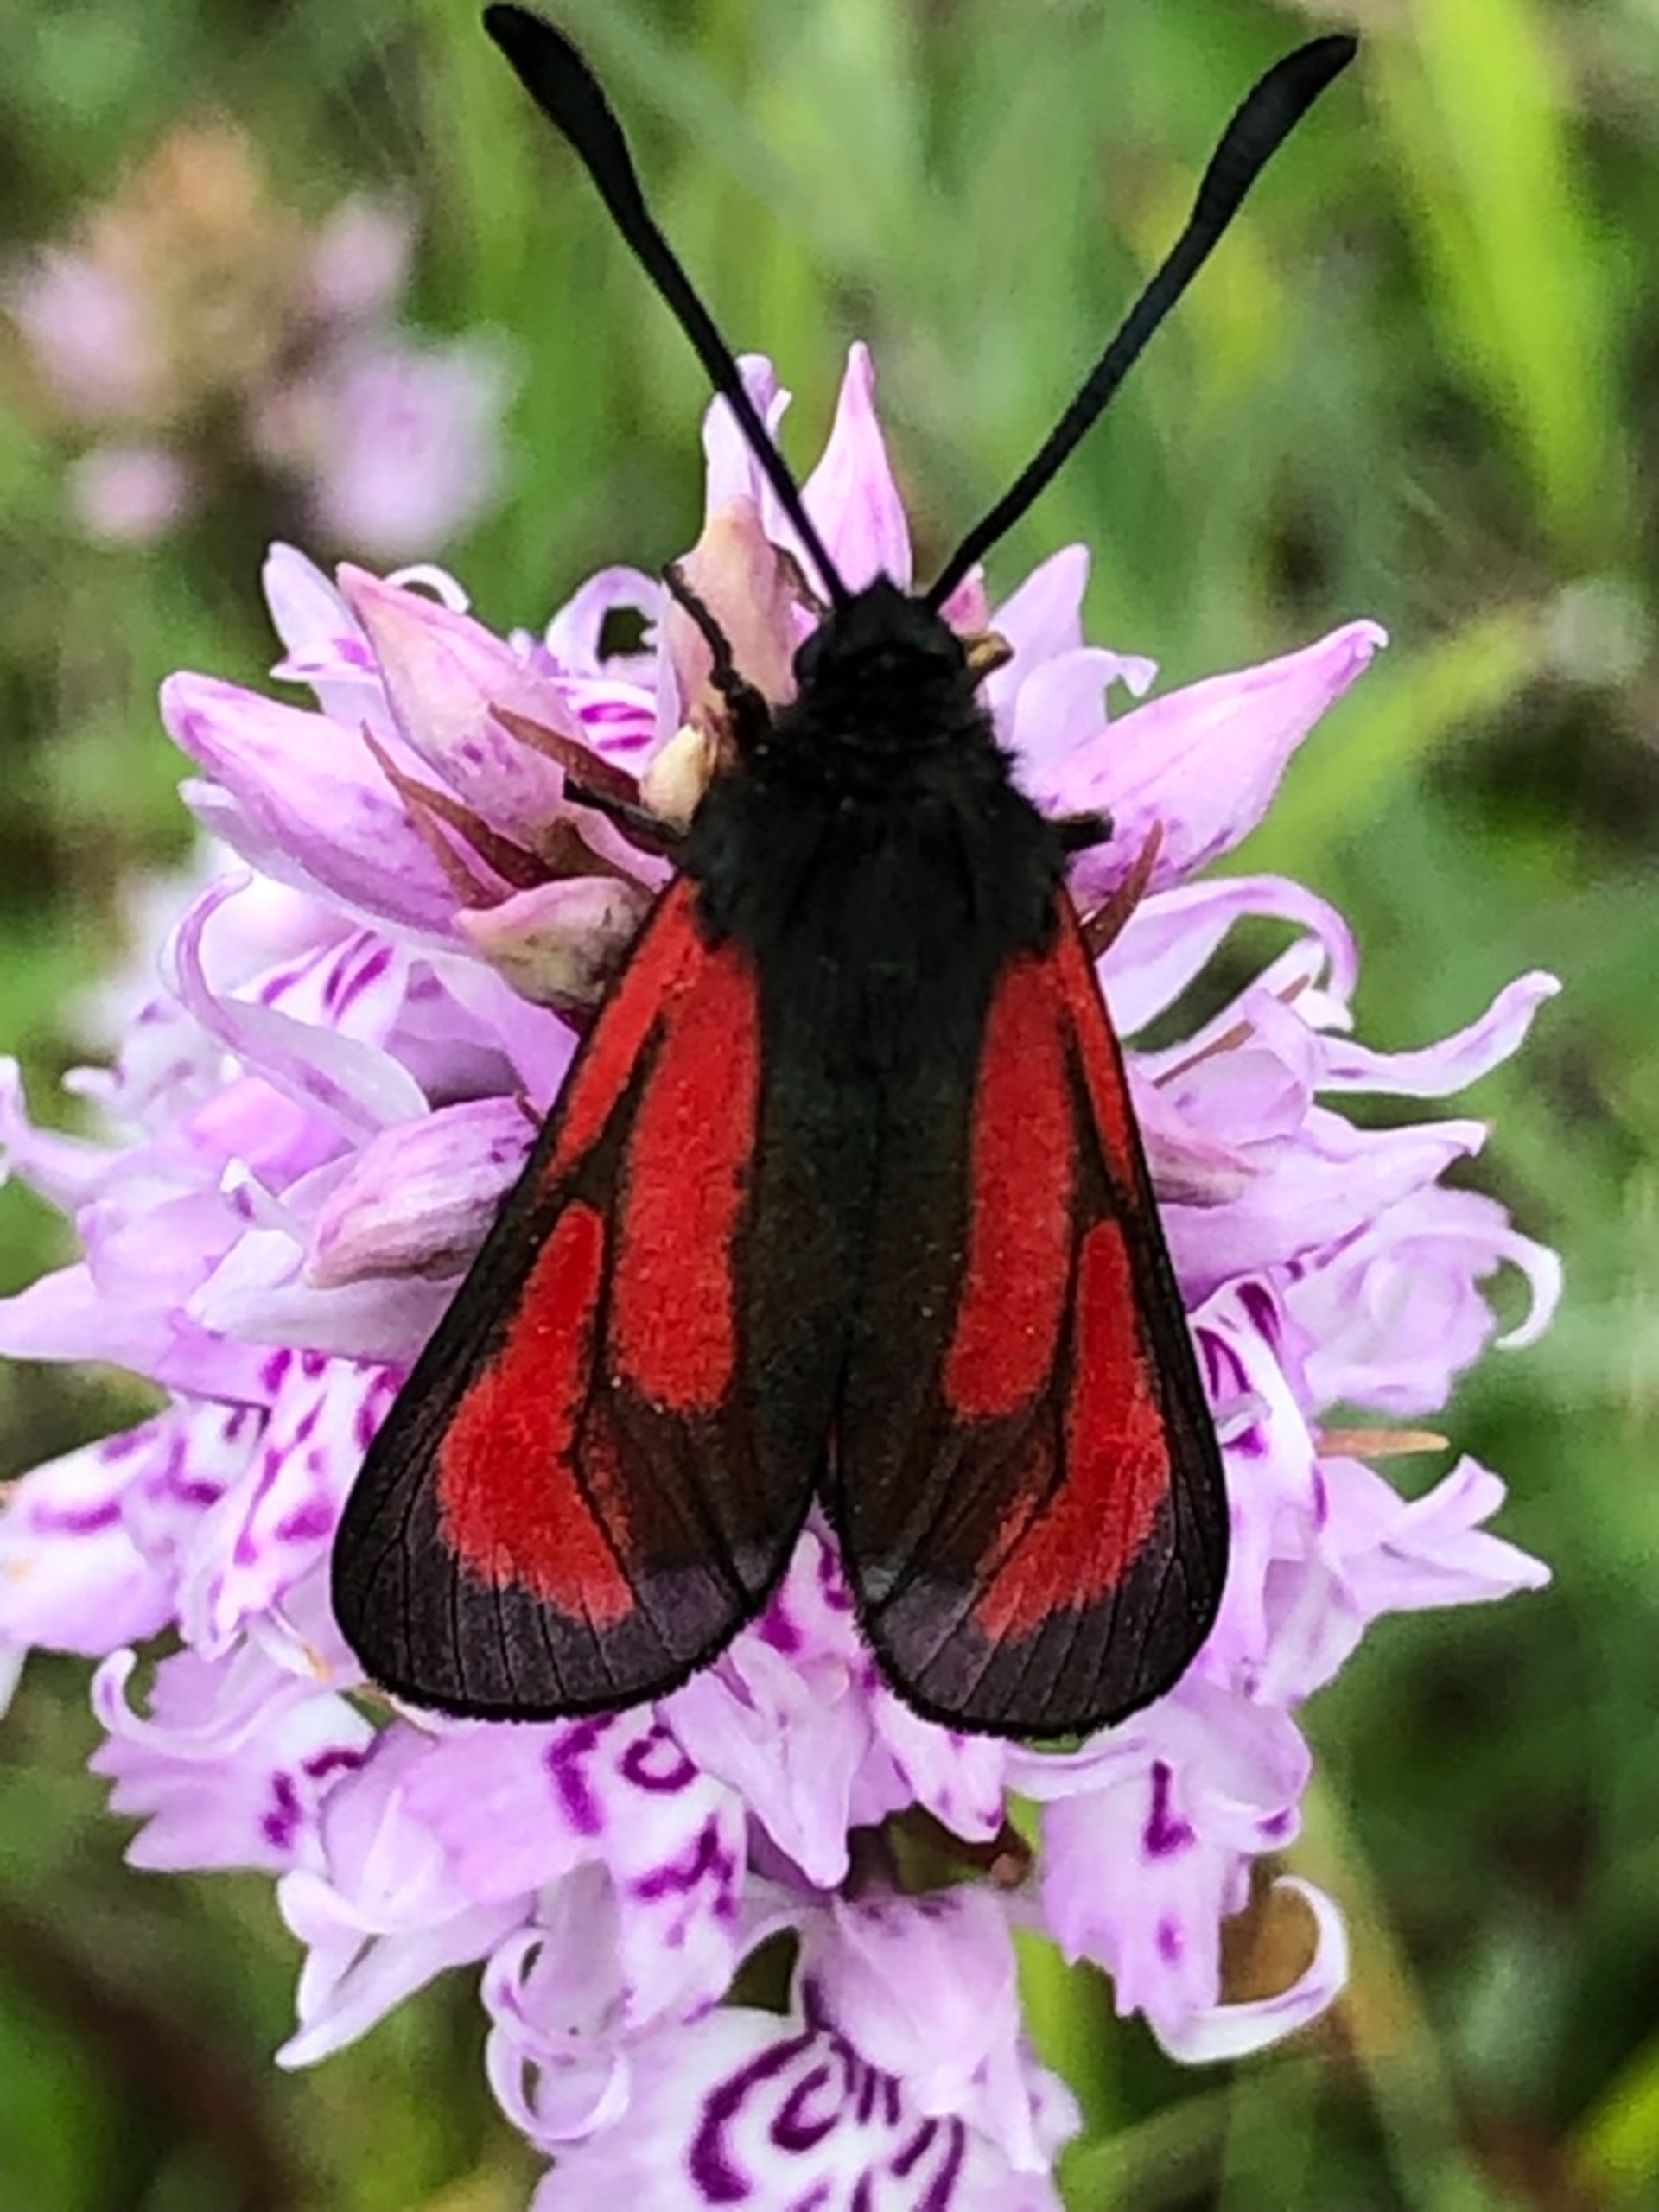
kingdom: Animalia
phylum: Arthropoda
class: Insecta
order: Lepidoptera
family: Zygaenidae
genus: Zygaena
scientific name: Zygaena purpuralis
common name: Timiankøllesværmer
